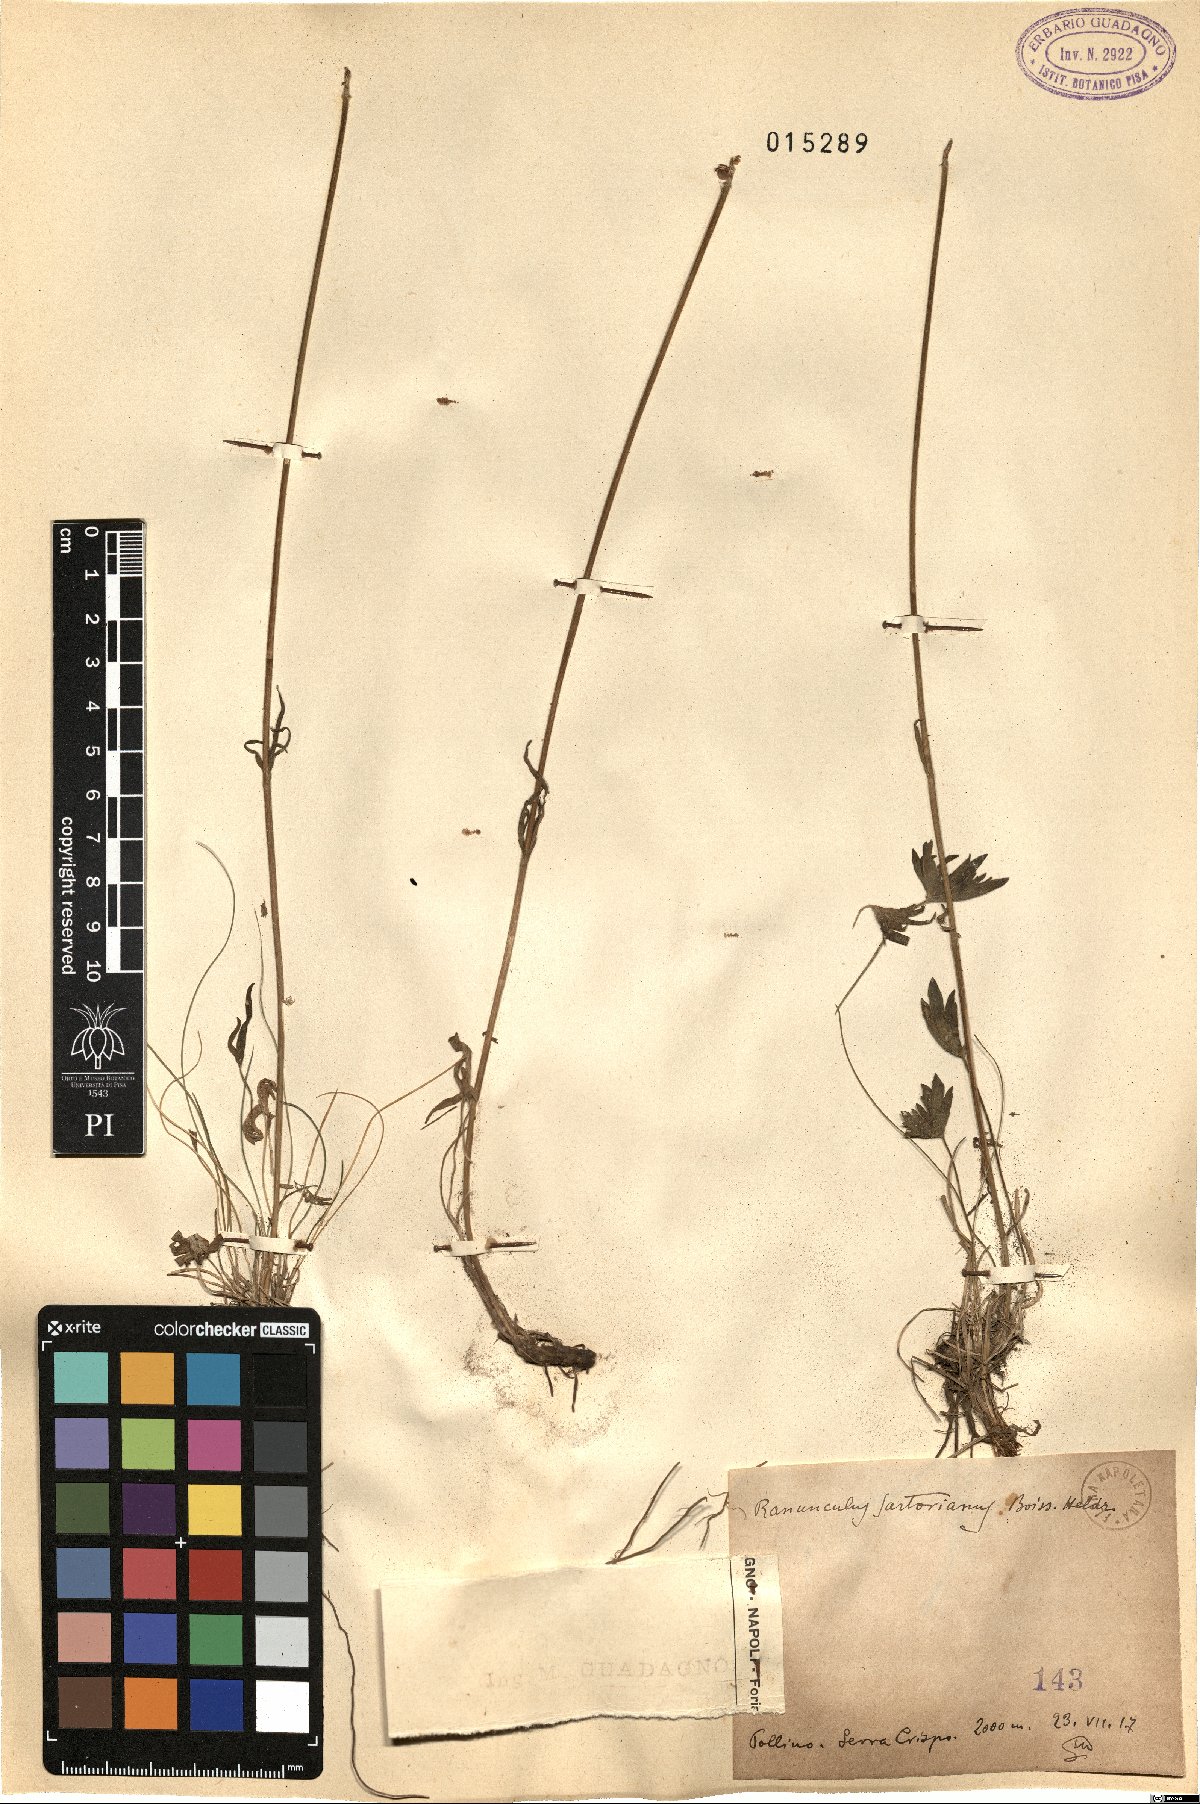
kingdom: Plantae
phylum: Tracheophyta
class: Magnoliopsida
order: Ranunculales
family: Ranunculaceae
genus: Ranunculus
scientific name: Ranunculus sartorianus
